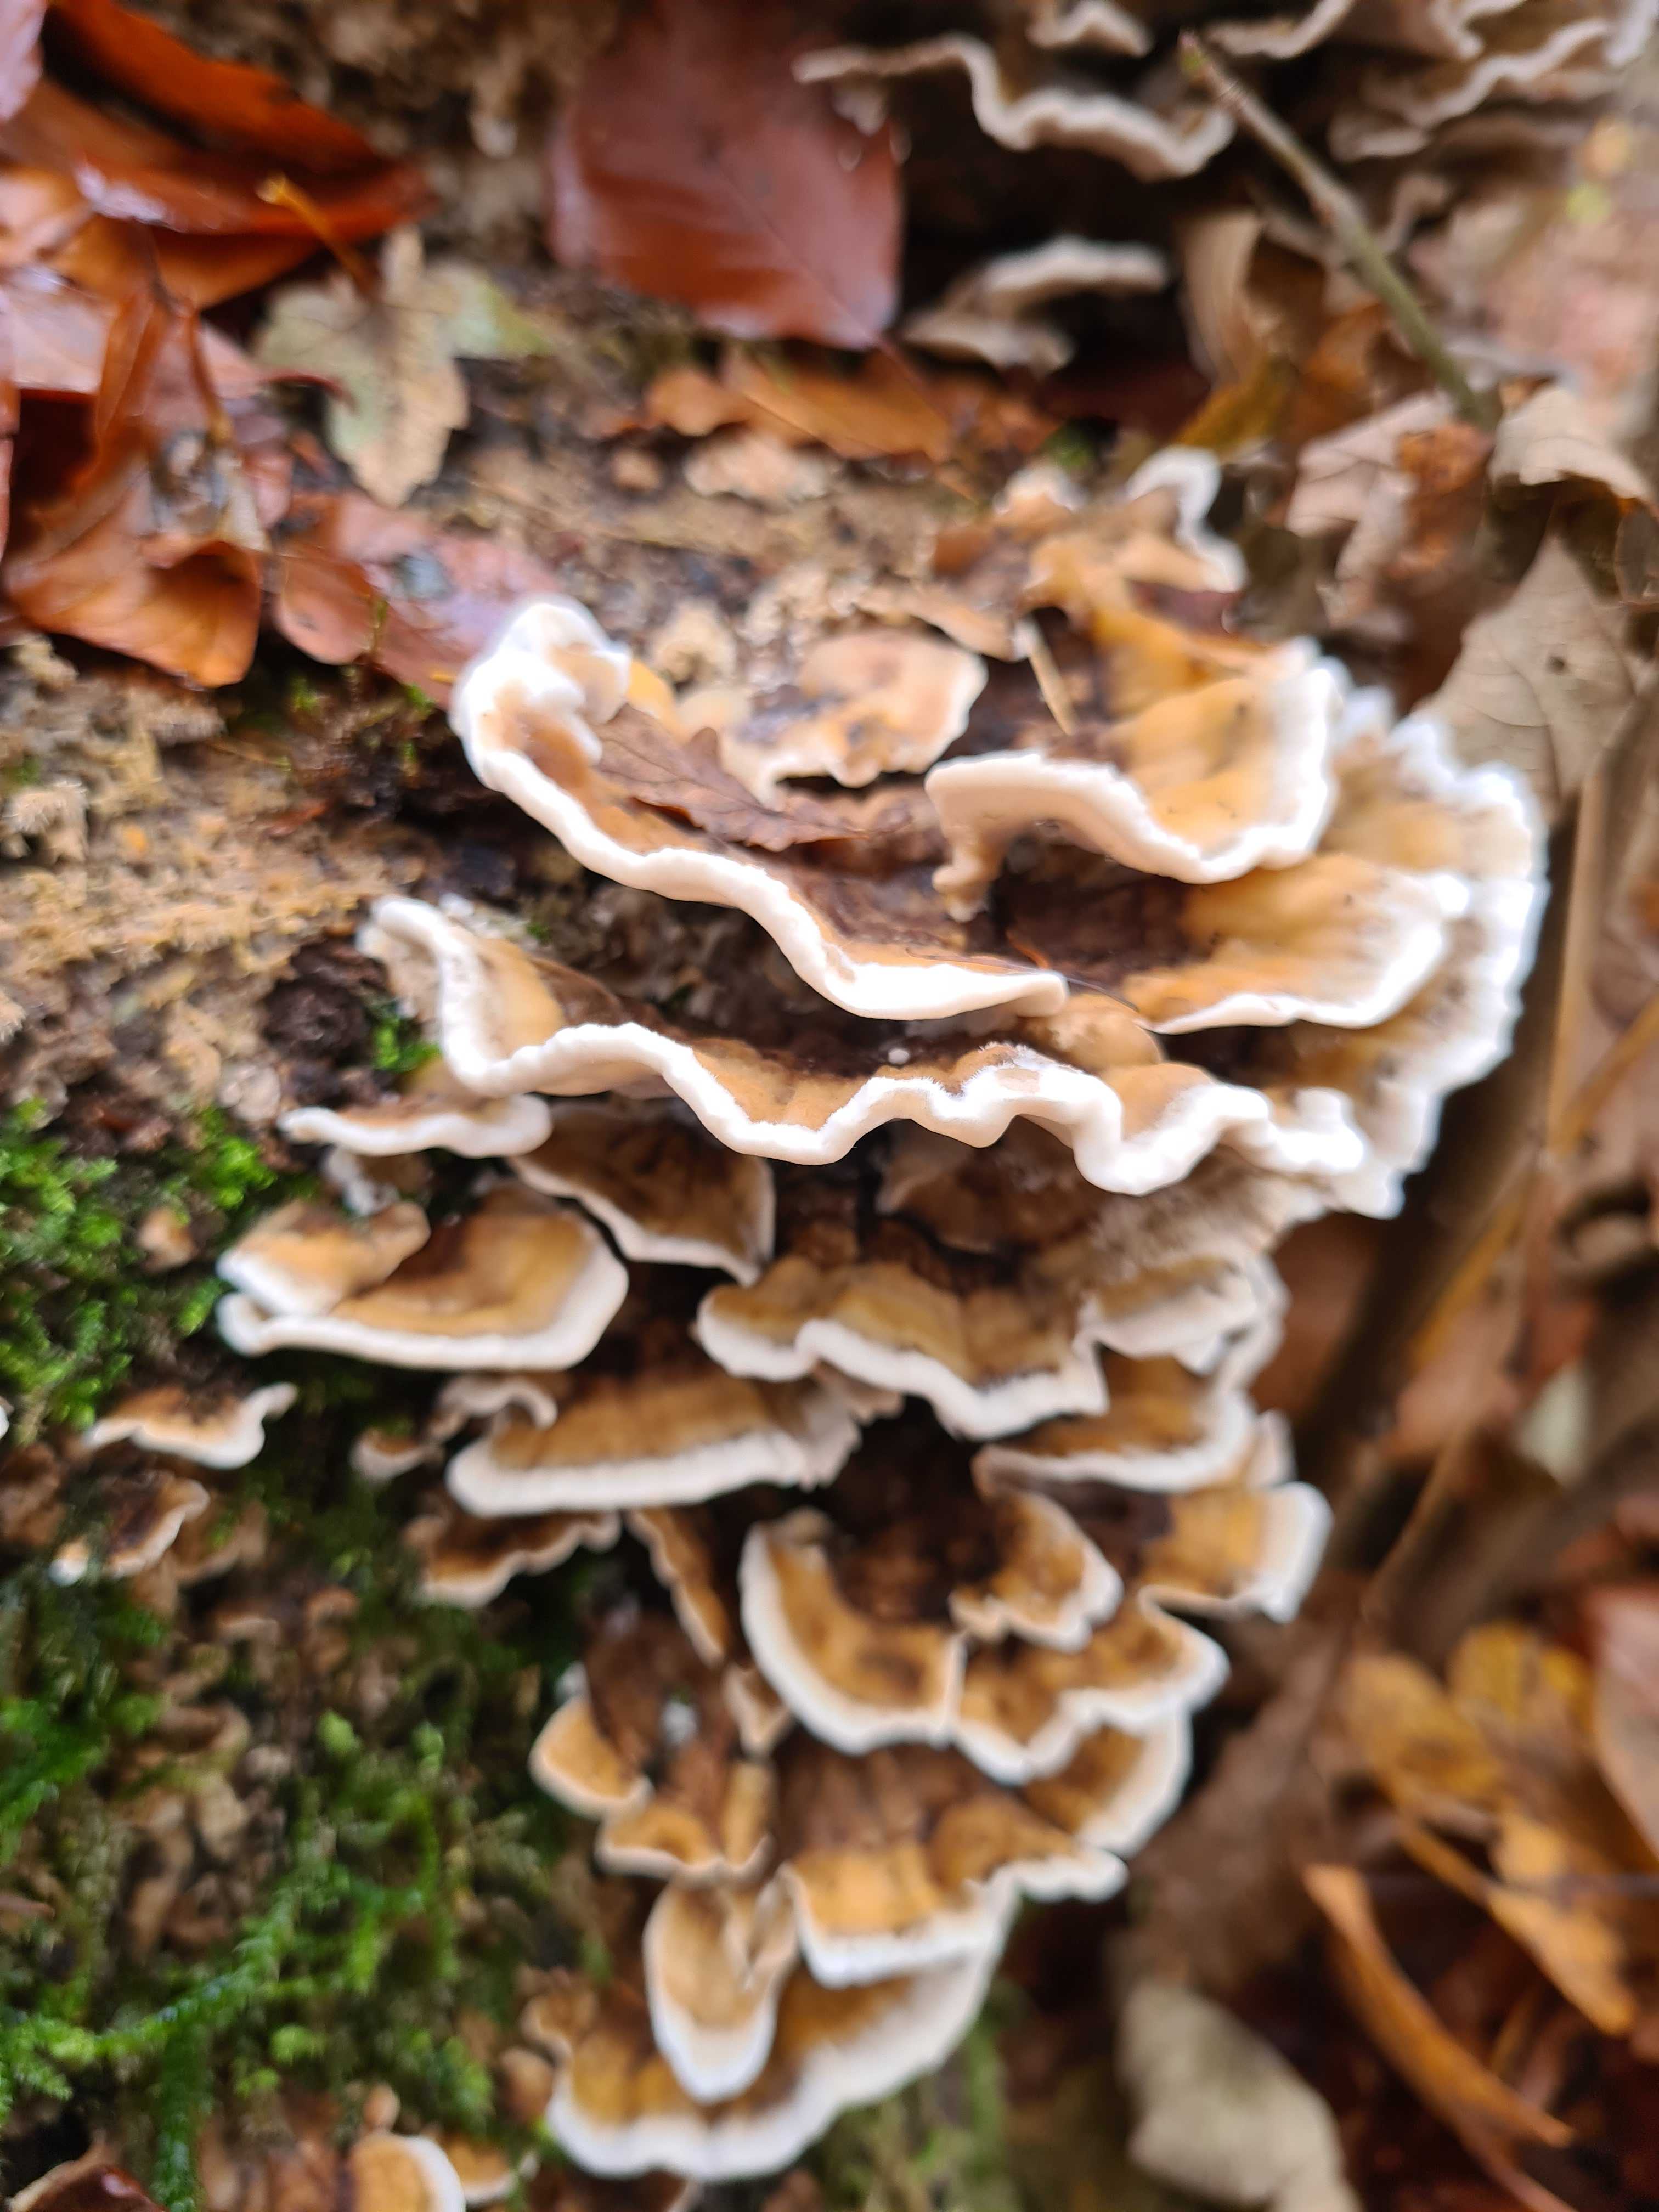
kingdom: Fungi
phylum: Basidiomycota
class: Agaricomycetes
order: Polyporales
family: Polyporaceae
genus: Trametes
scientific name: Trametes versicolor
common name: broget læderporesvamp
